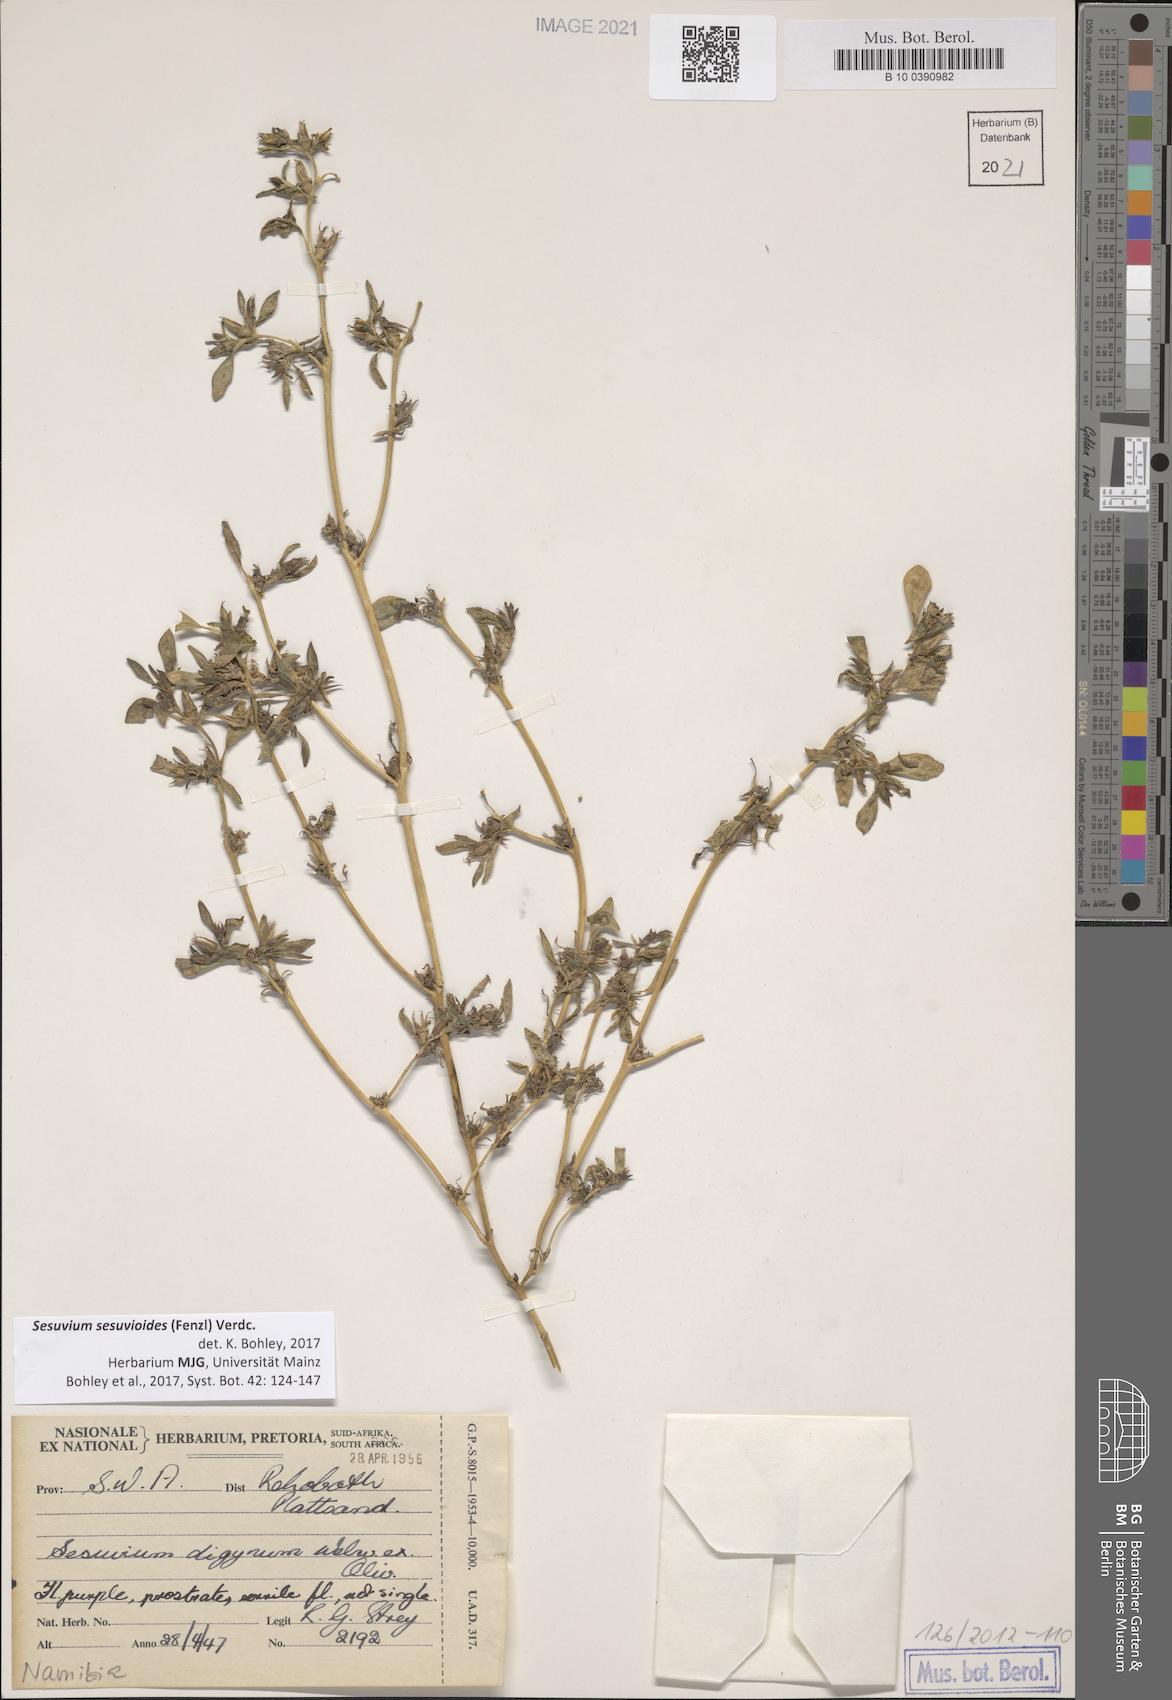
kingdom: Plantae
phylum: Tracheophyta
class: Magnoliopsida
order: Caryophyllales
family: Aizoaceae
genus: Sesuvium
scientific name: Sesuvium sesuvioides
